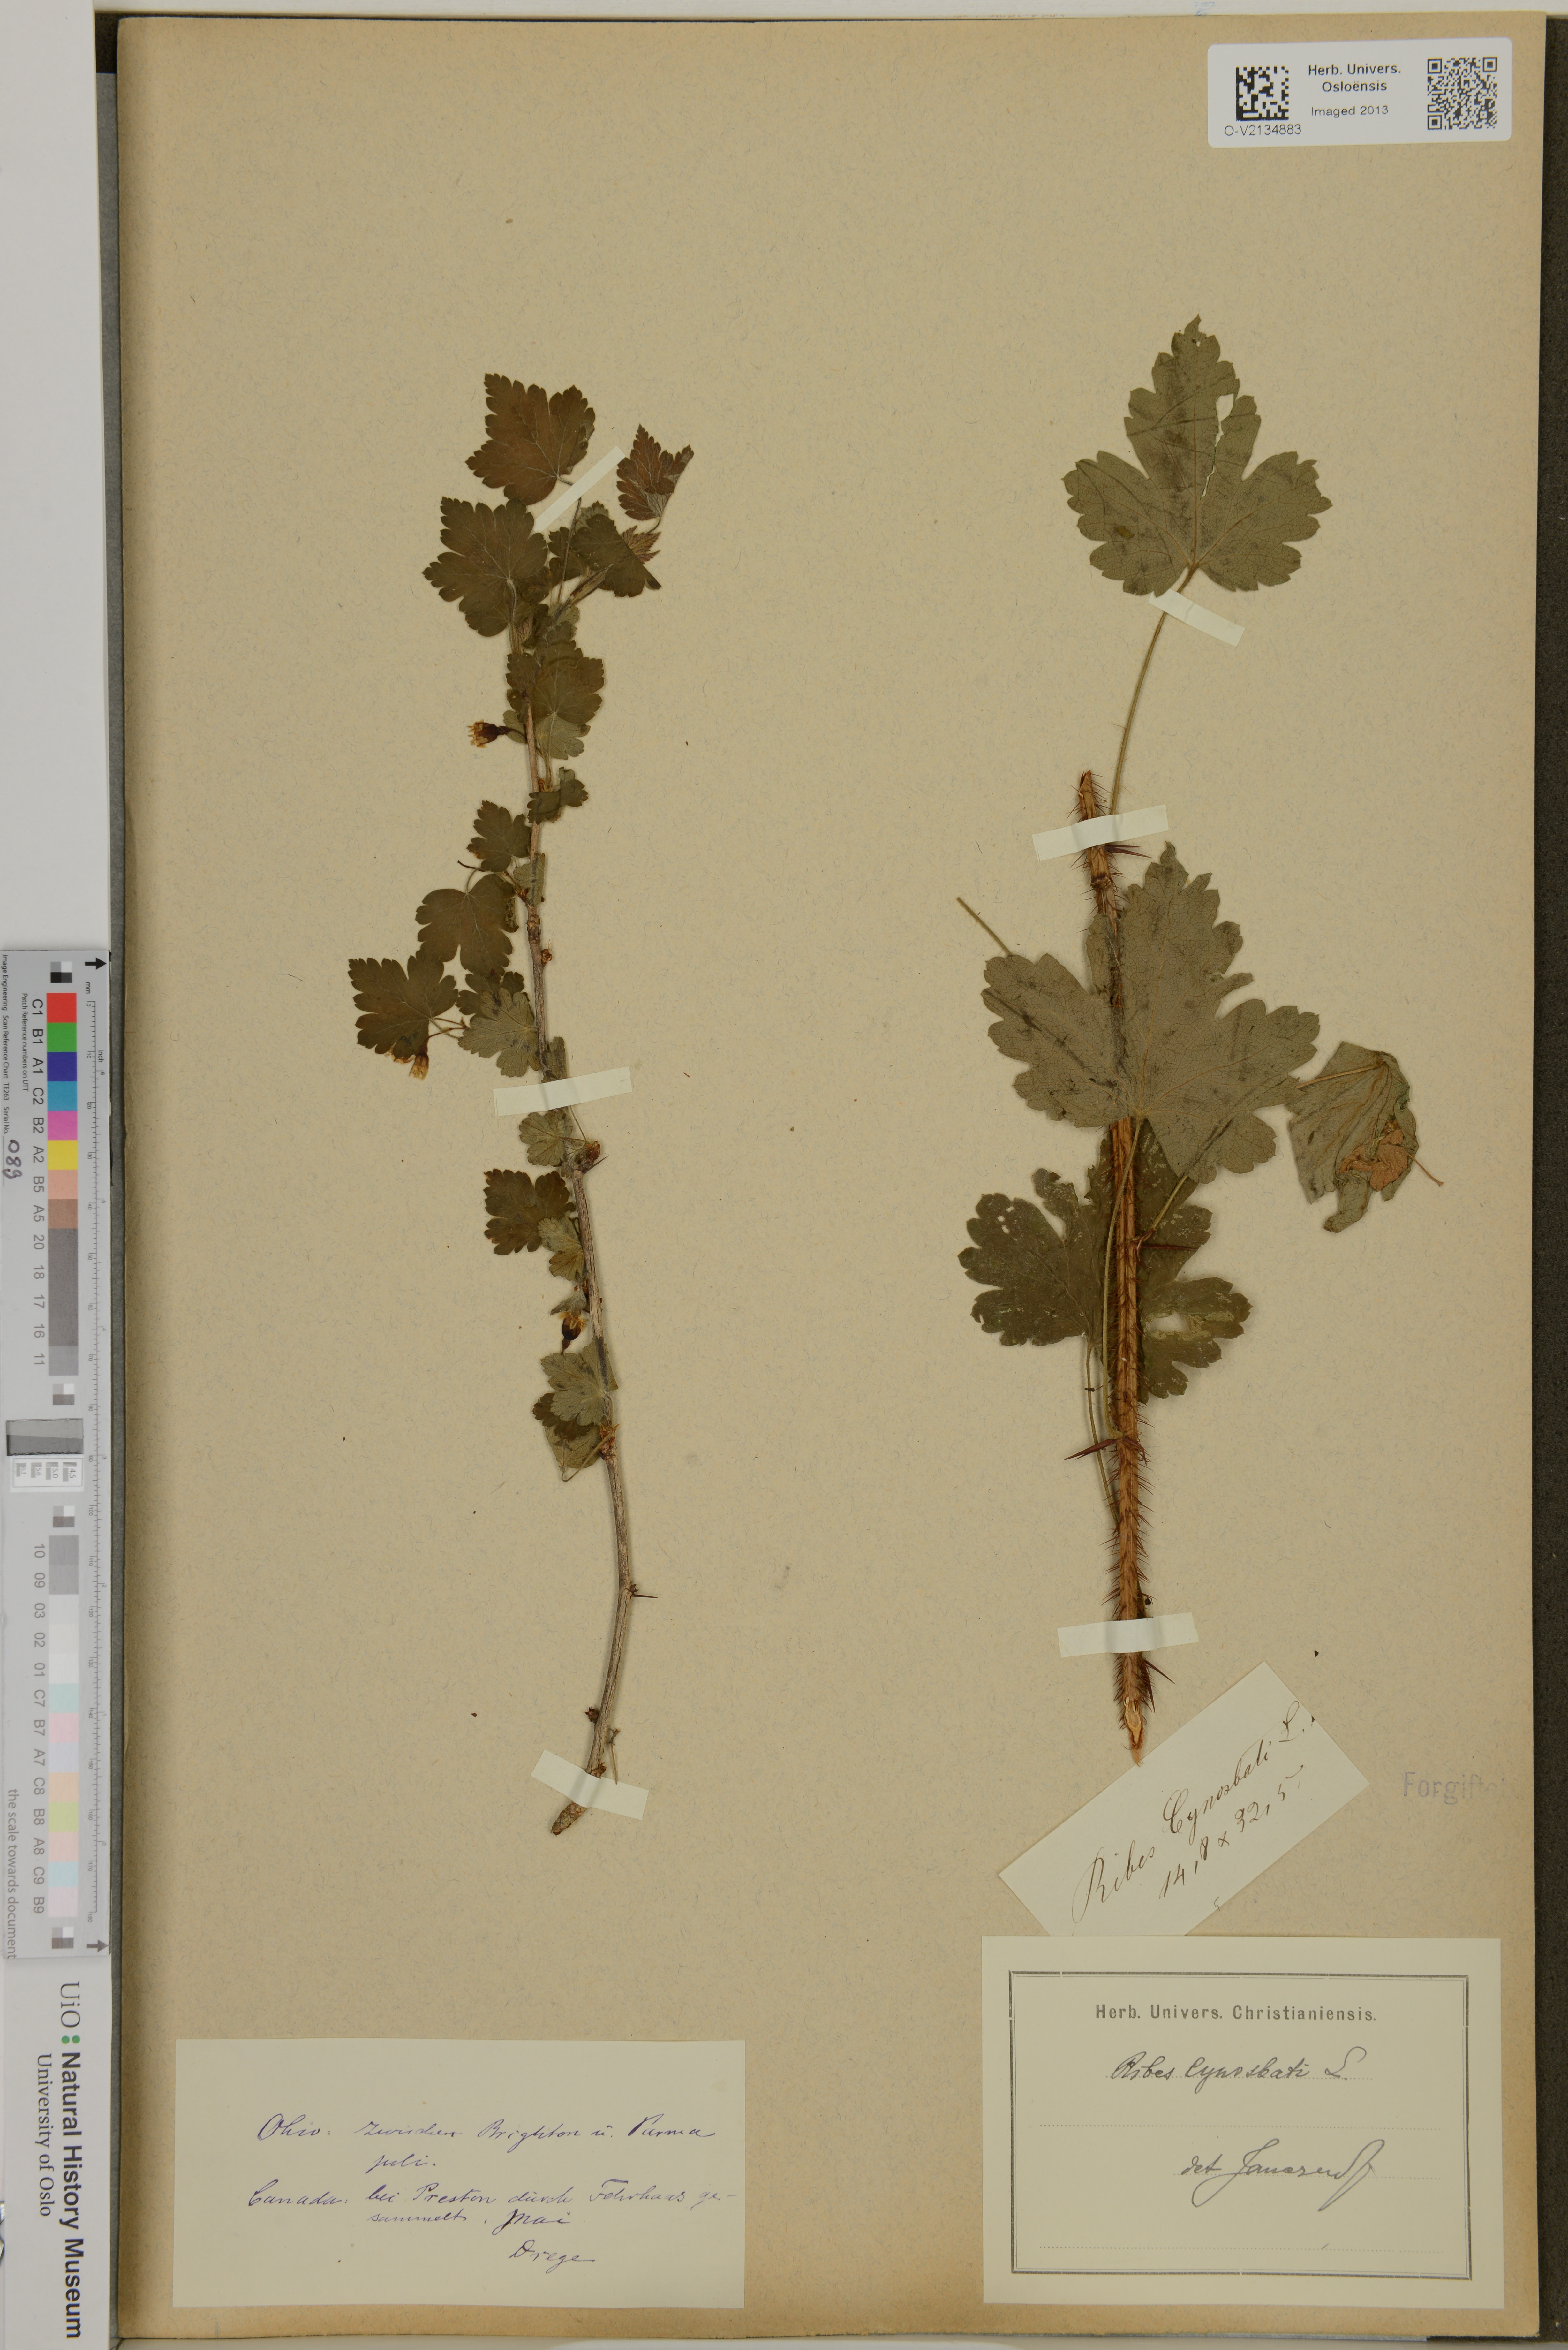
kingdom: Plantae
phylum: Tracheophyta
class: Magnoliopsida
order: Saxifragales
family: Grossulariaceae
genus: Ribes
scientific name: Ribes cynosbati
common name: American gooseberry
